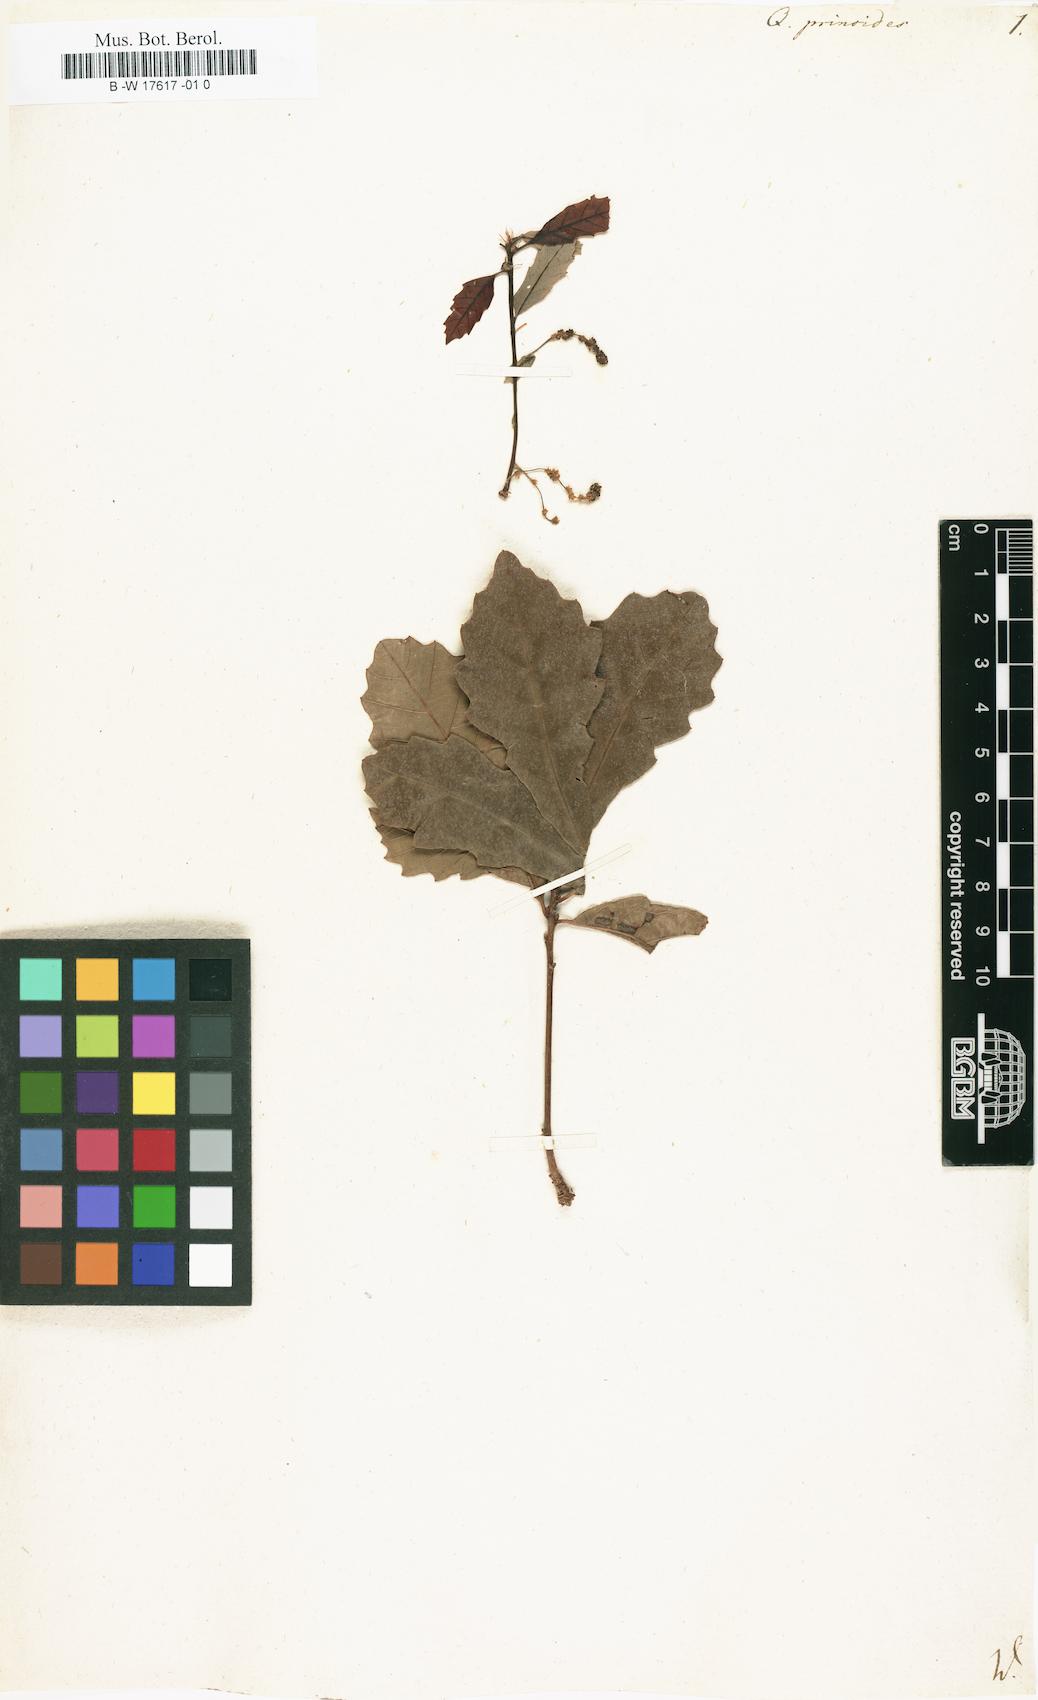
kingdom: Plantae
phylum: Tracheophyta
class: Magnoliopsida
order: Fagales
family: Fagaceae
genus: Quercus
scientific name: Quercus prinoides
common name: Dwarf chinkapin oak
